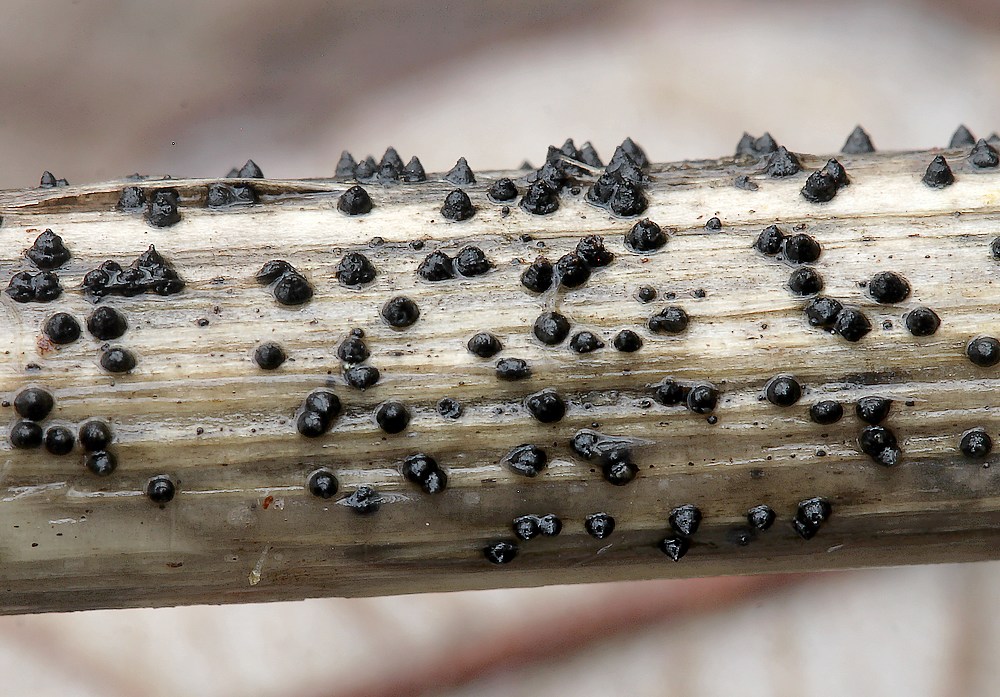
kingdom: Fungi
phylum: Ascomycota
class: Dothideomycetes
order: Pleosporales
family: Leptosphaeriaceae
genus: Leptosphaeria
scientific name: Leptosphaeria acuta
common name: spids kulkegle
